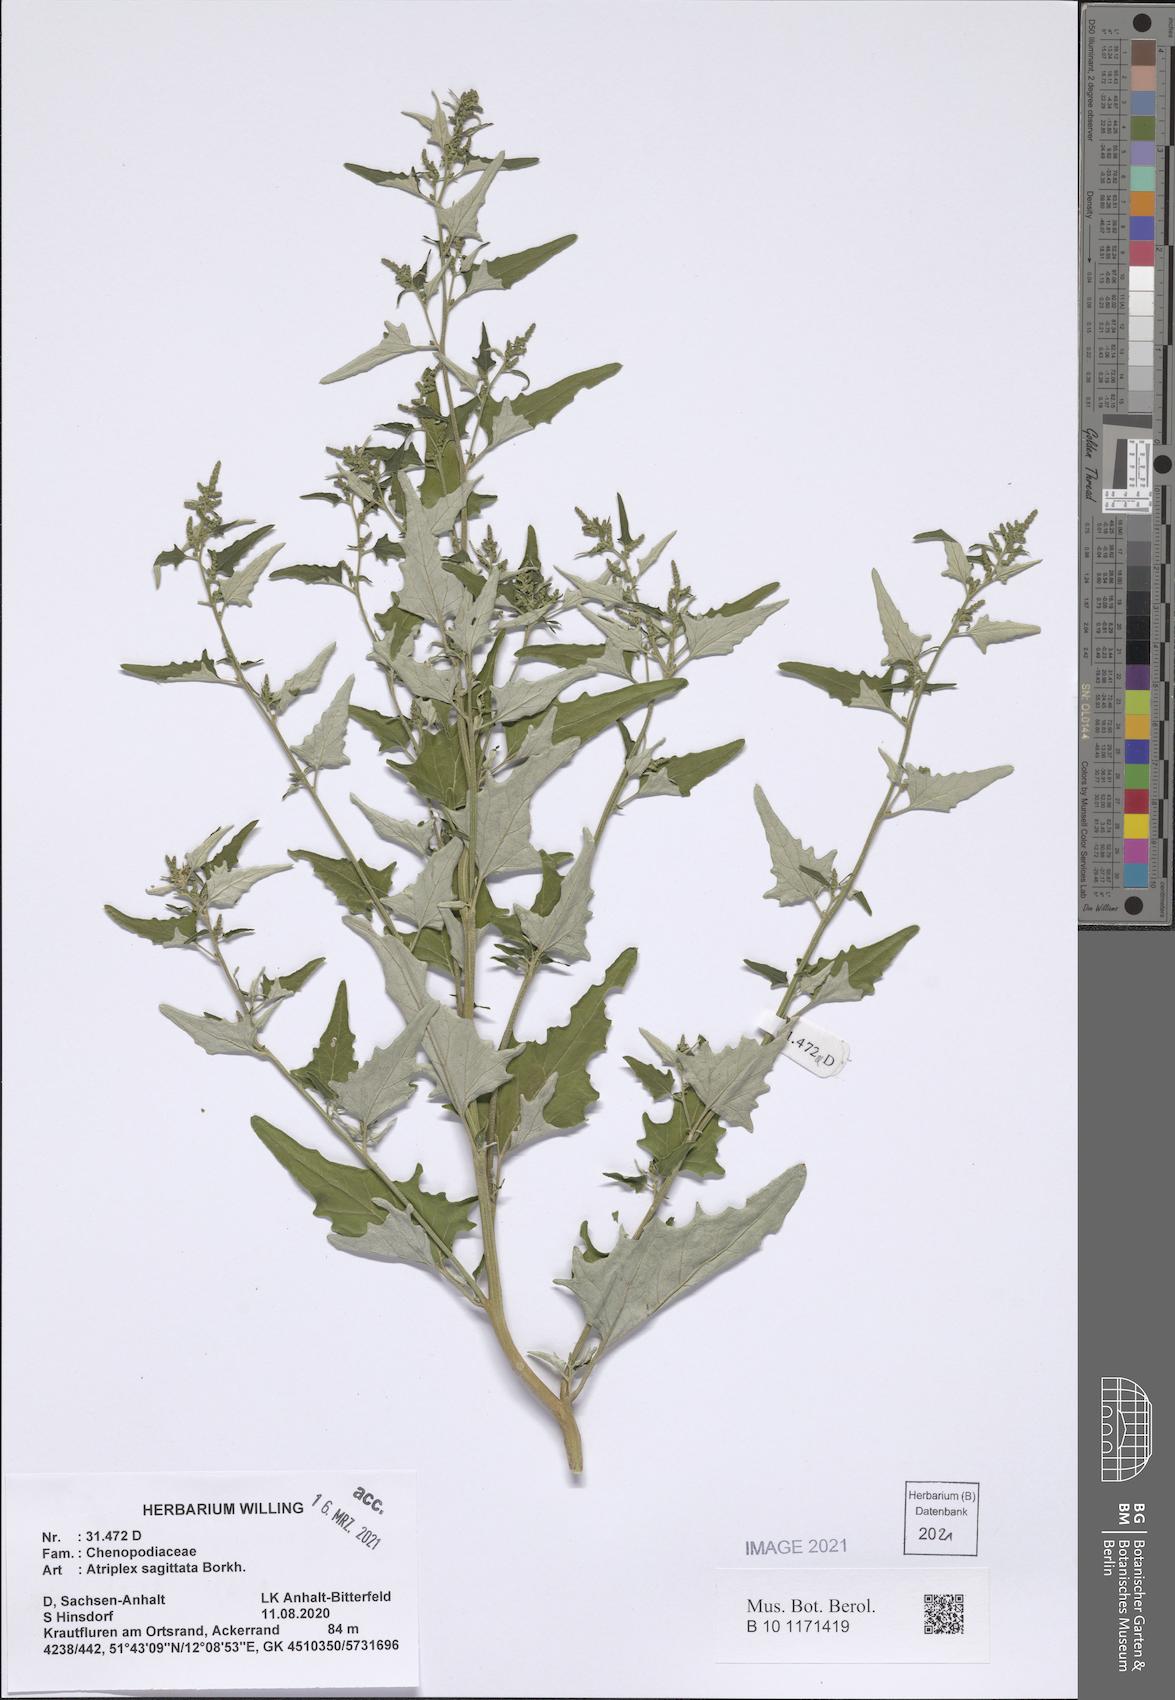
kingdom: Plantae
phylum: Tracheophyta
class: Magnoliopsida
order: Caryophyllales
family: Amaranthaceae
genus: Atriplex
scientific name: Atriplex sagittata
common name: Purple orache
